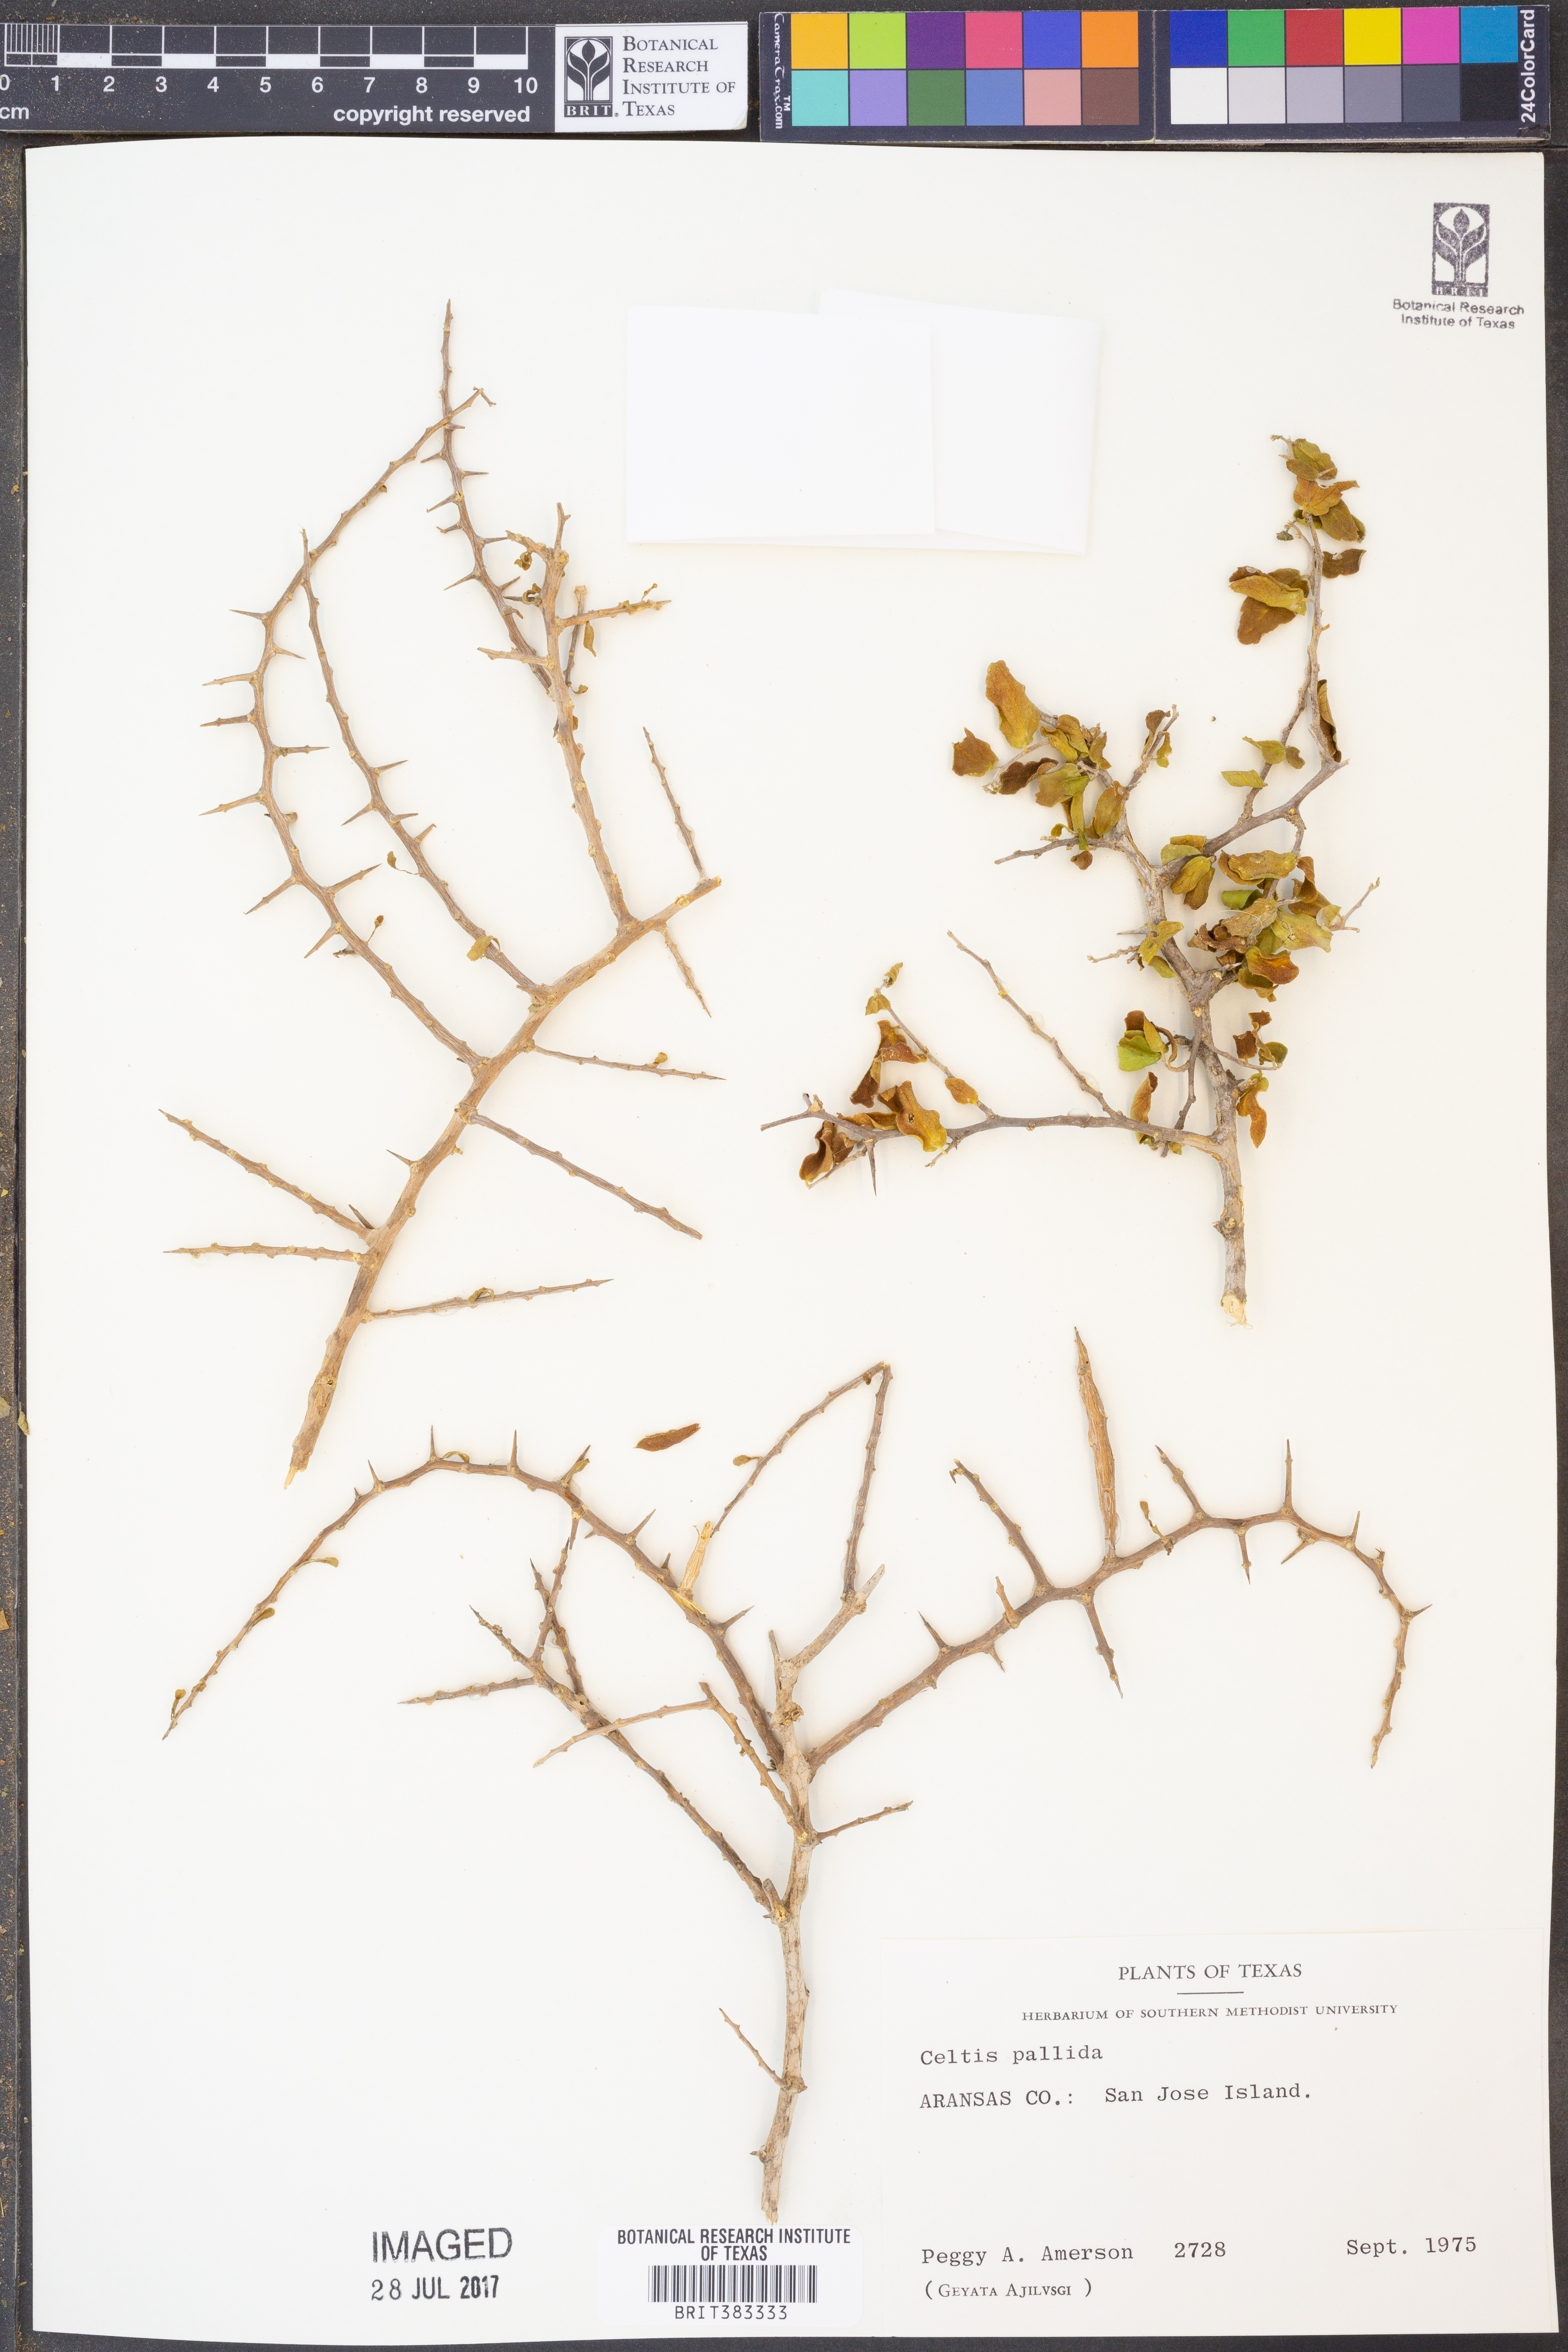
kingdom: Plantae
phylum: Tracheophyta
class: Magnoliopsida
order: Rosales
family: Cannabaceae
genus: Celtis
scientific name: Celtis pallida
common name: Desert hackberry
